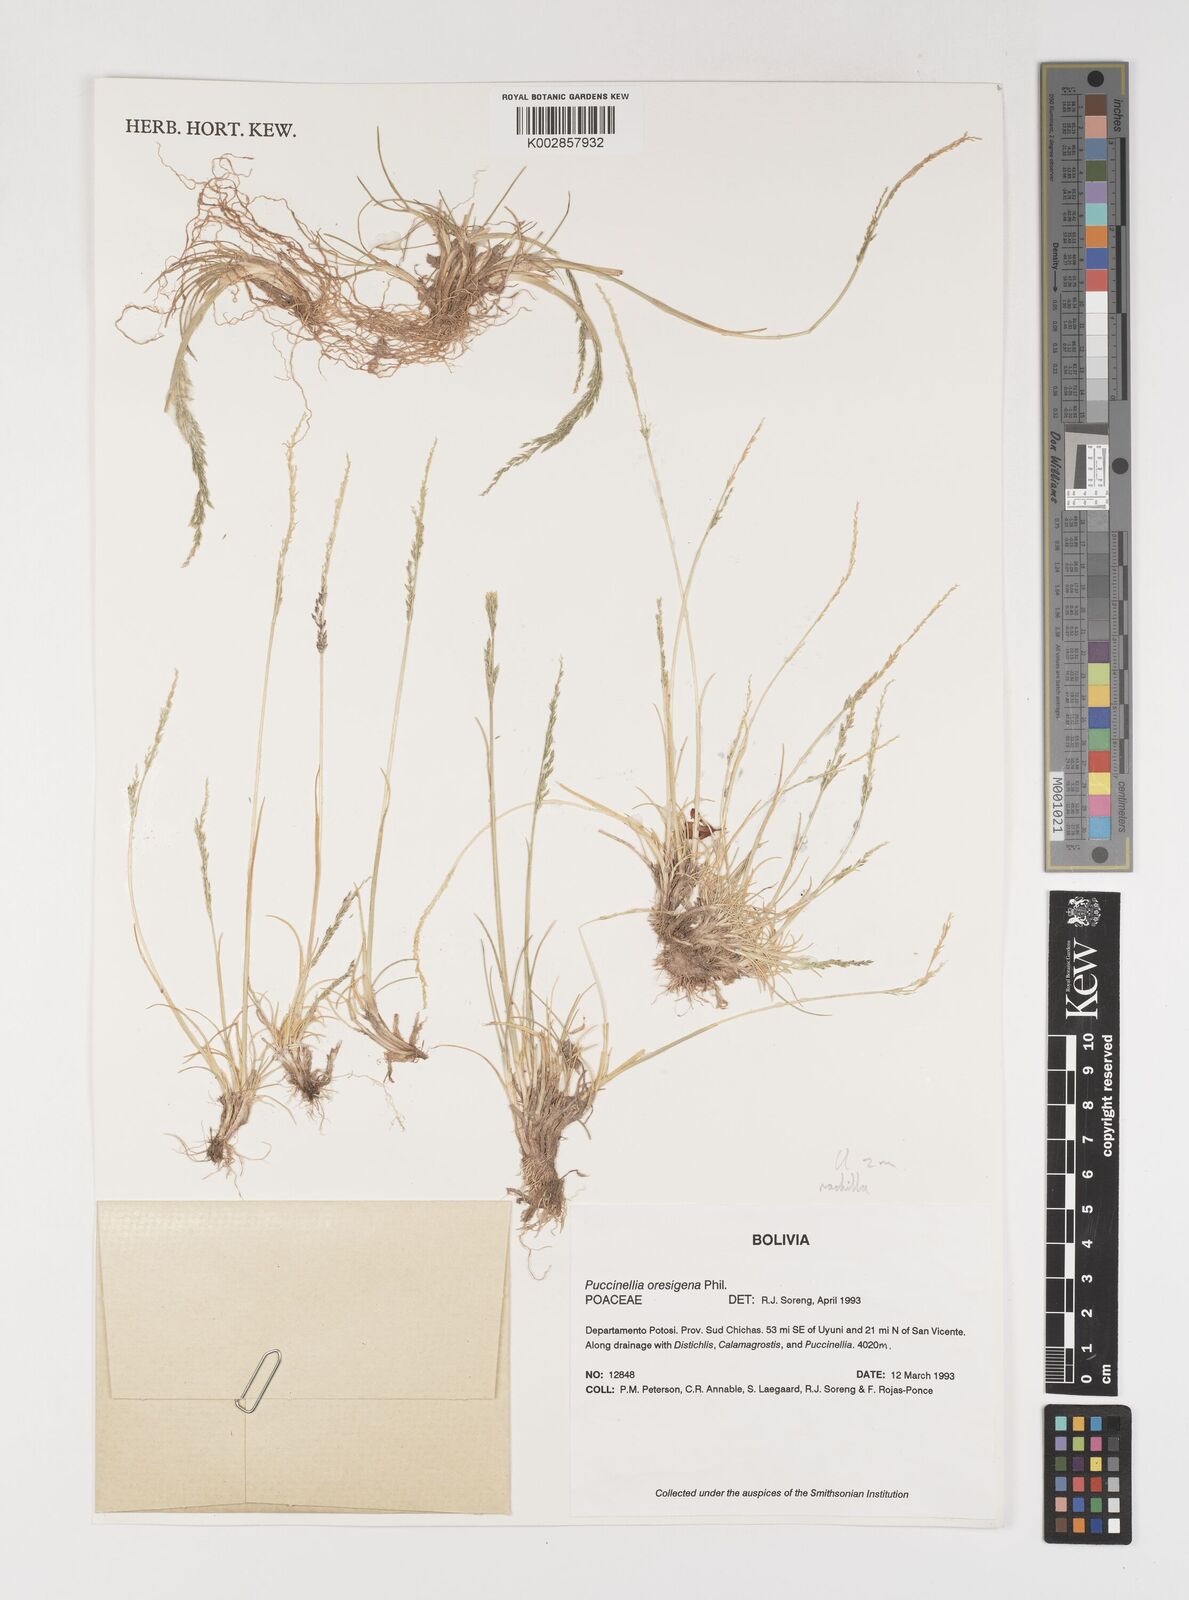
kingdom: Plantae
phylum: Tracheophyta
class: Liliopsida
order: Poales
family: Poaceae
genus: Puccinellia
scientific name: Puccinellia frigida
